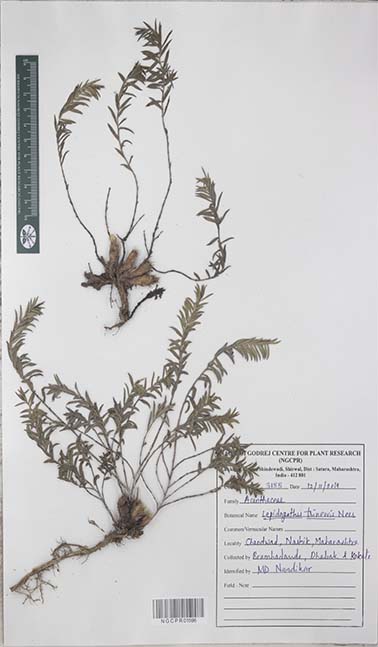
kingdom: Plantae
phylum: Tracheophyta
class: Magnoliopsida
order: Lamiales
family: Acanthaceae
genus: Lepidagathis
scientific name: Lepidagathis trinervis
